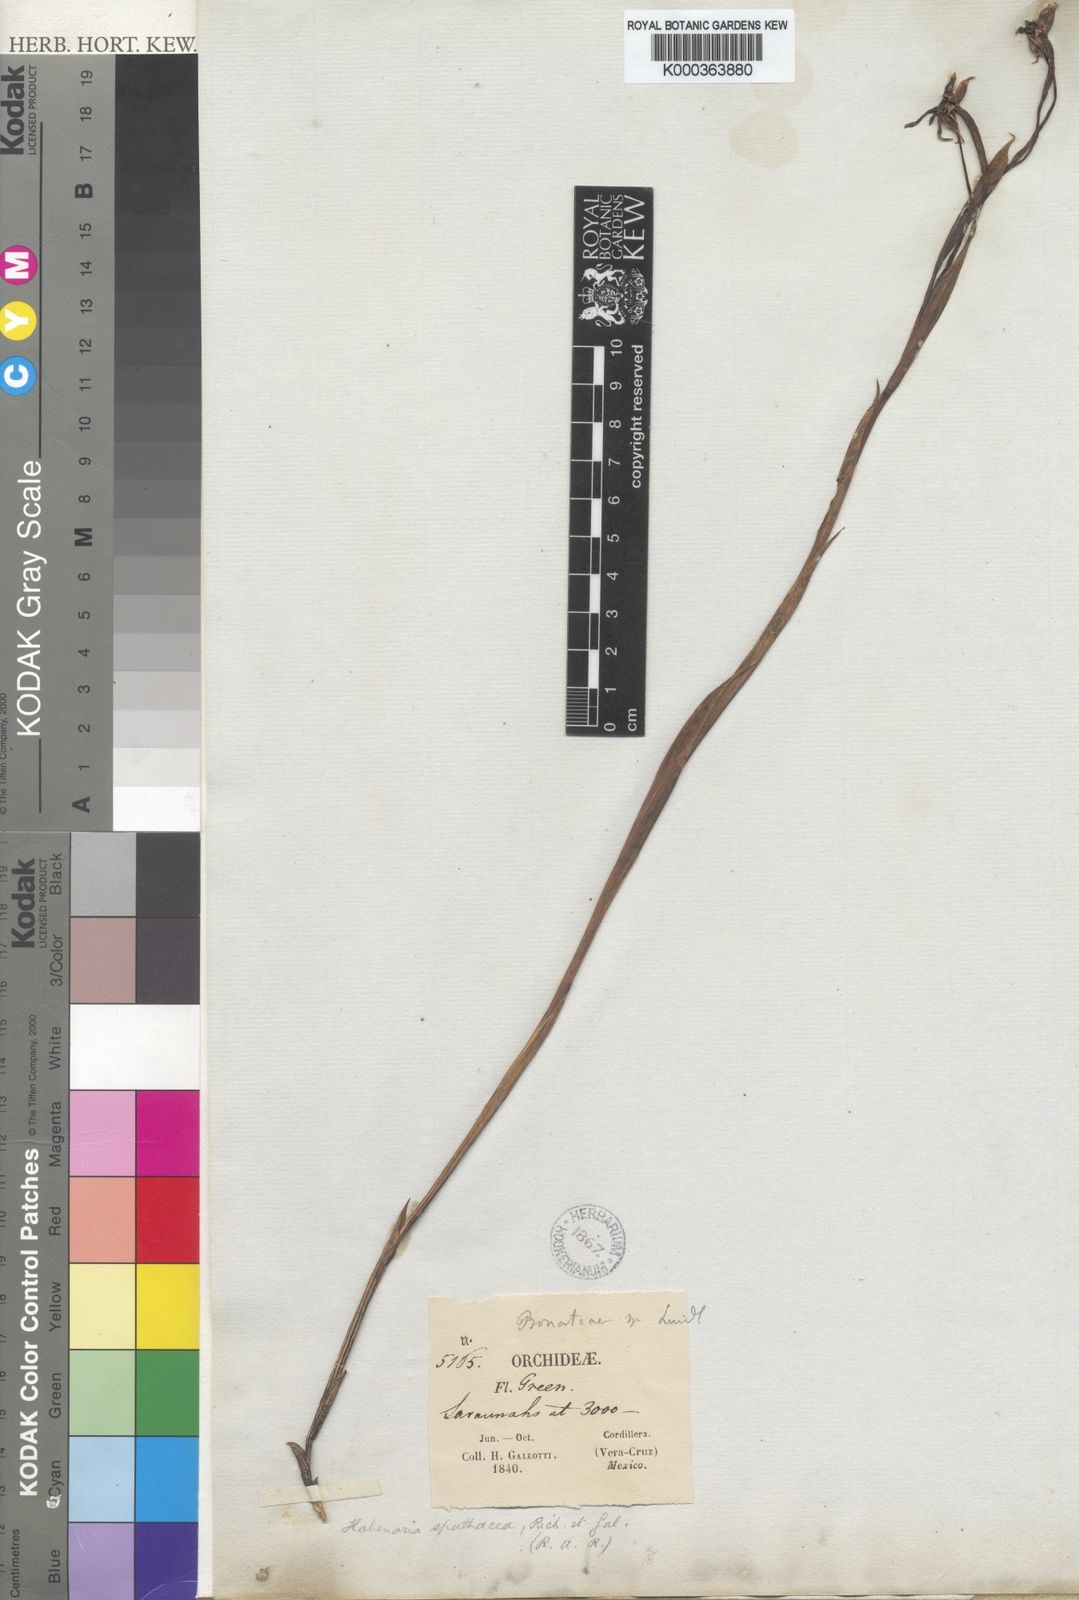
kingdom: Plantae
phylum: Tracheophyta
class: Liliopsida
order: Asparagales
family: Orchidaceae
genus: Habenaria
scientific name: Habenaria trifida
